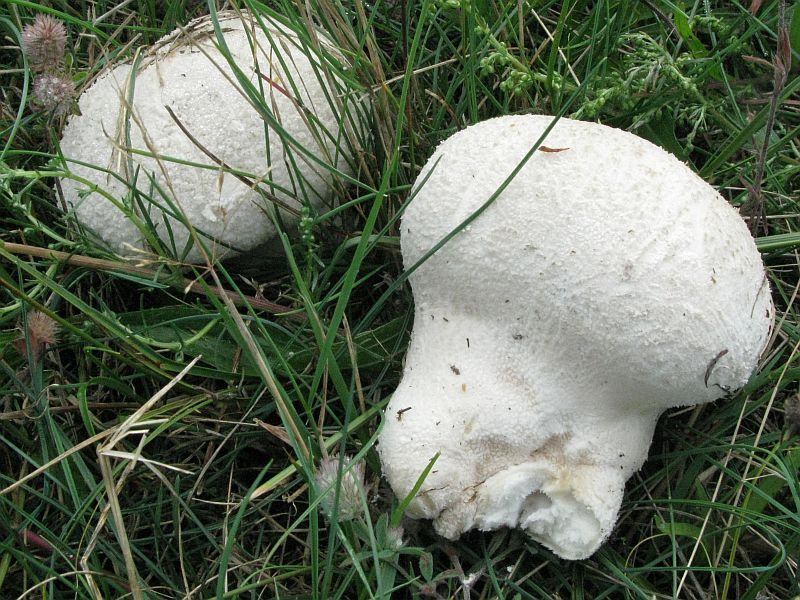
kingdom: Fungi
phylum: Basidiomycota
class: Agaricomycetes
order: Agaricales
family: Lycoperdaceae
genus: Bovistella
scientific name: Bovistella utriformis
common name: skællet støvbold
